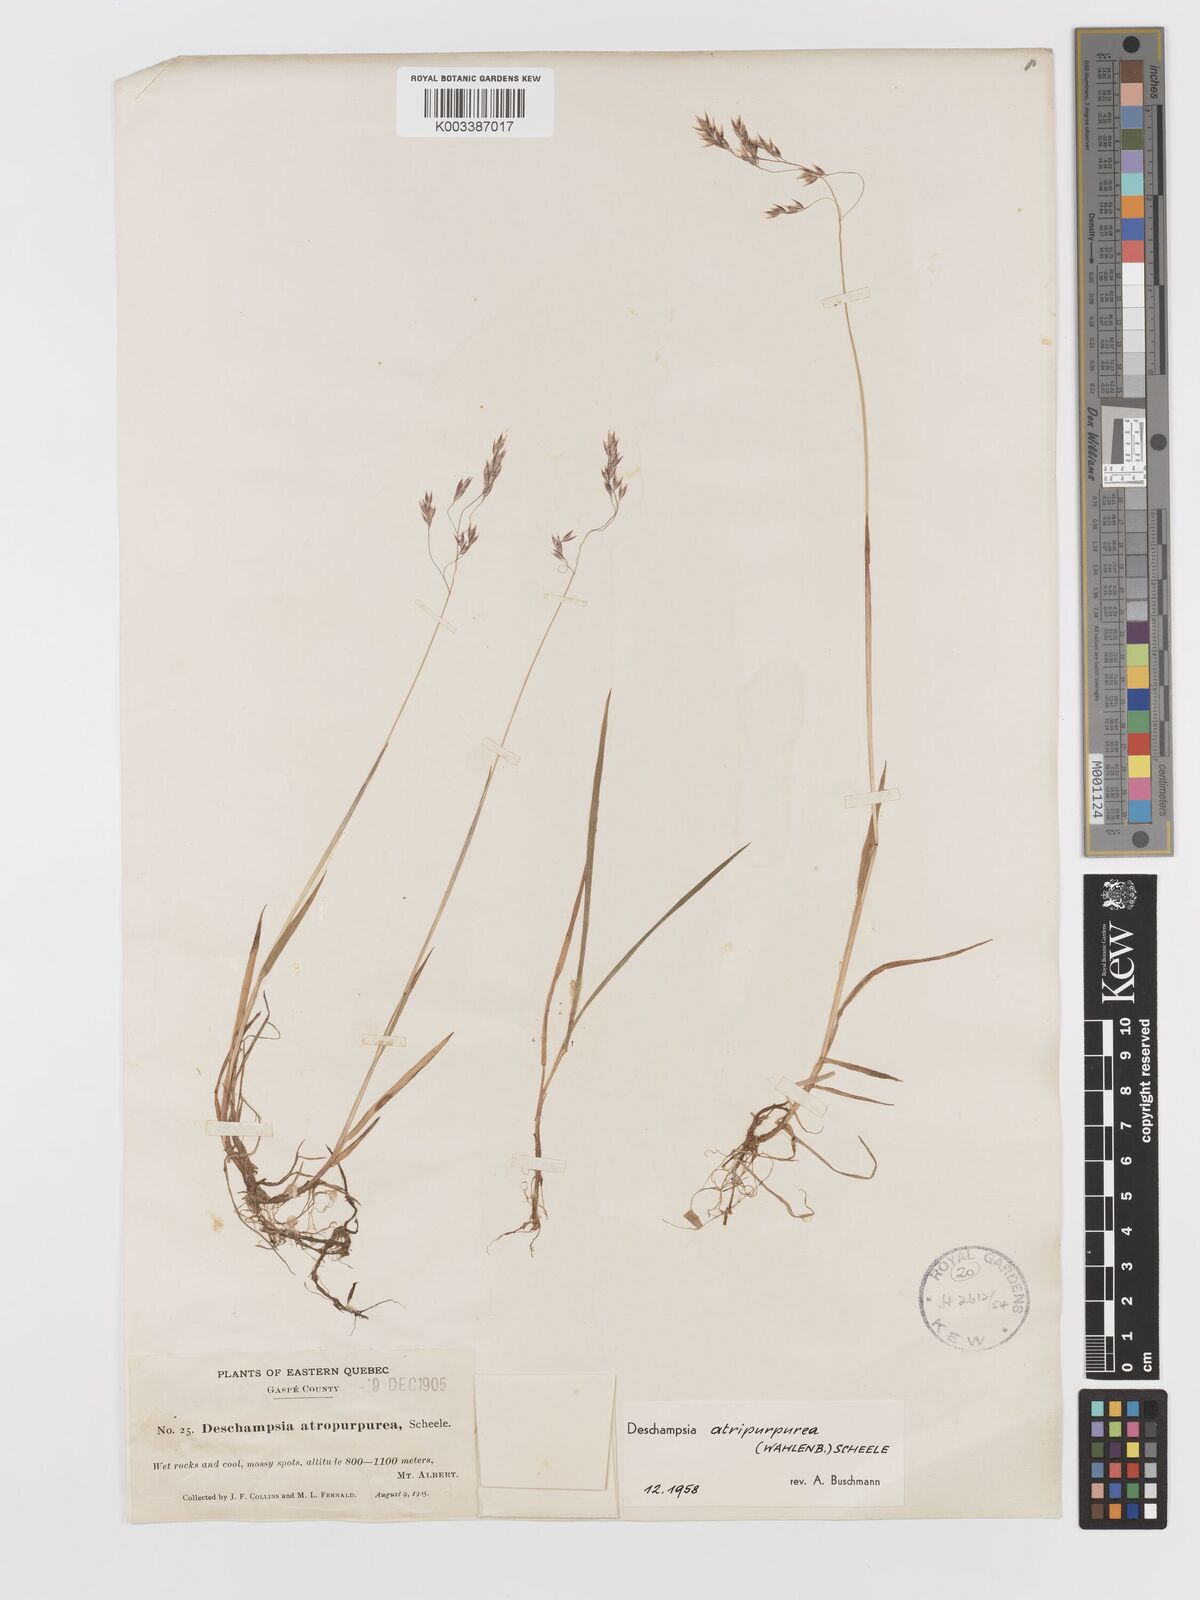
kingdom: Plantae
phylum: Tracheophyta
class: Liliopsida
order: Poales
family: Poaceae
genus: Vahlodea
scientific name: Vahlodea atropurpurea
